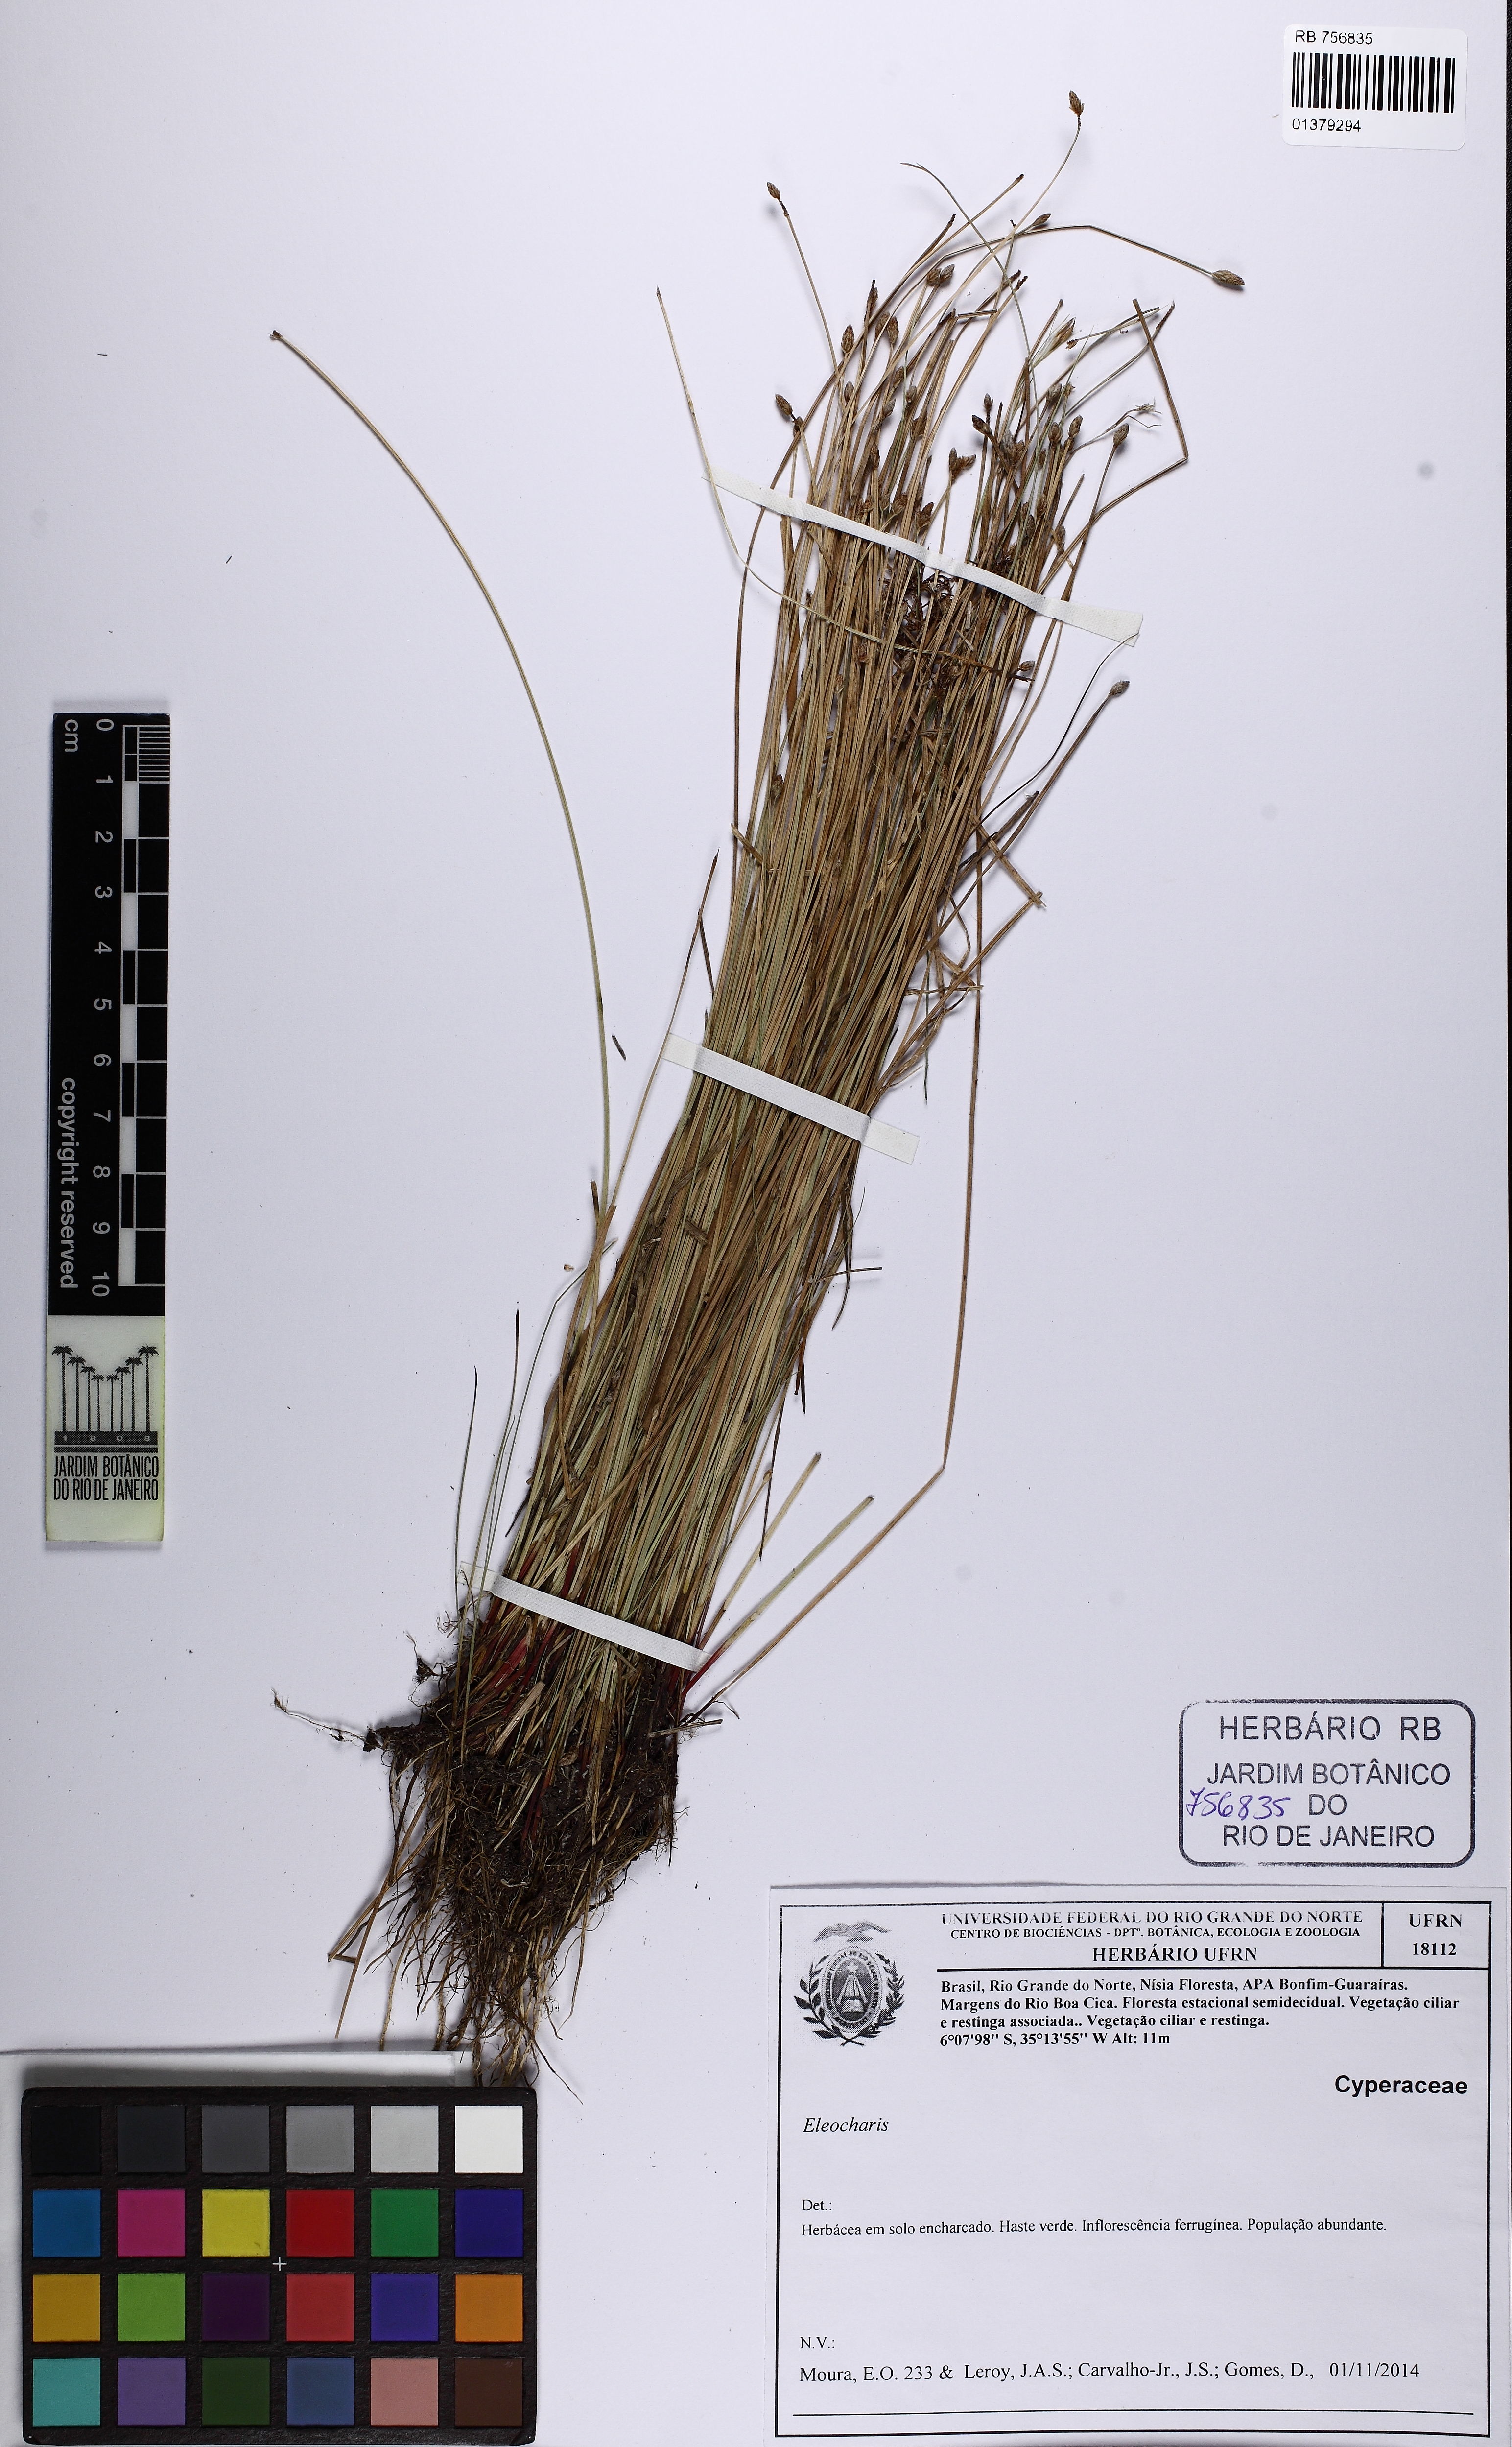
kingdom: Plantae
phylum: Tracheophyta
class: Liliopsida
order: Poales
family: Cyperaceae
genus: Eleocharis
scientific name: Eleocharis
